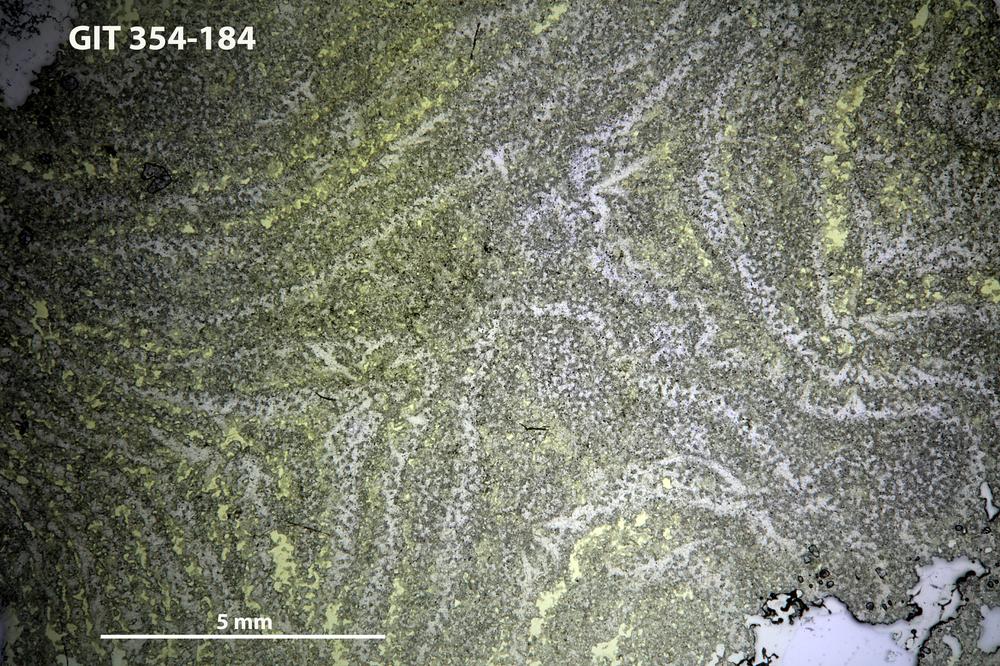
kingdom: Animalia
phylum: Porifera
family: Clathrodictyidae
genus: Clathrodictyon
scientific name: Clathrodictyon boreale
